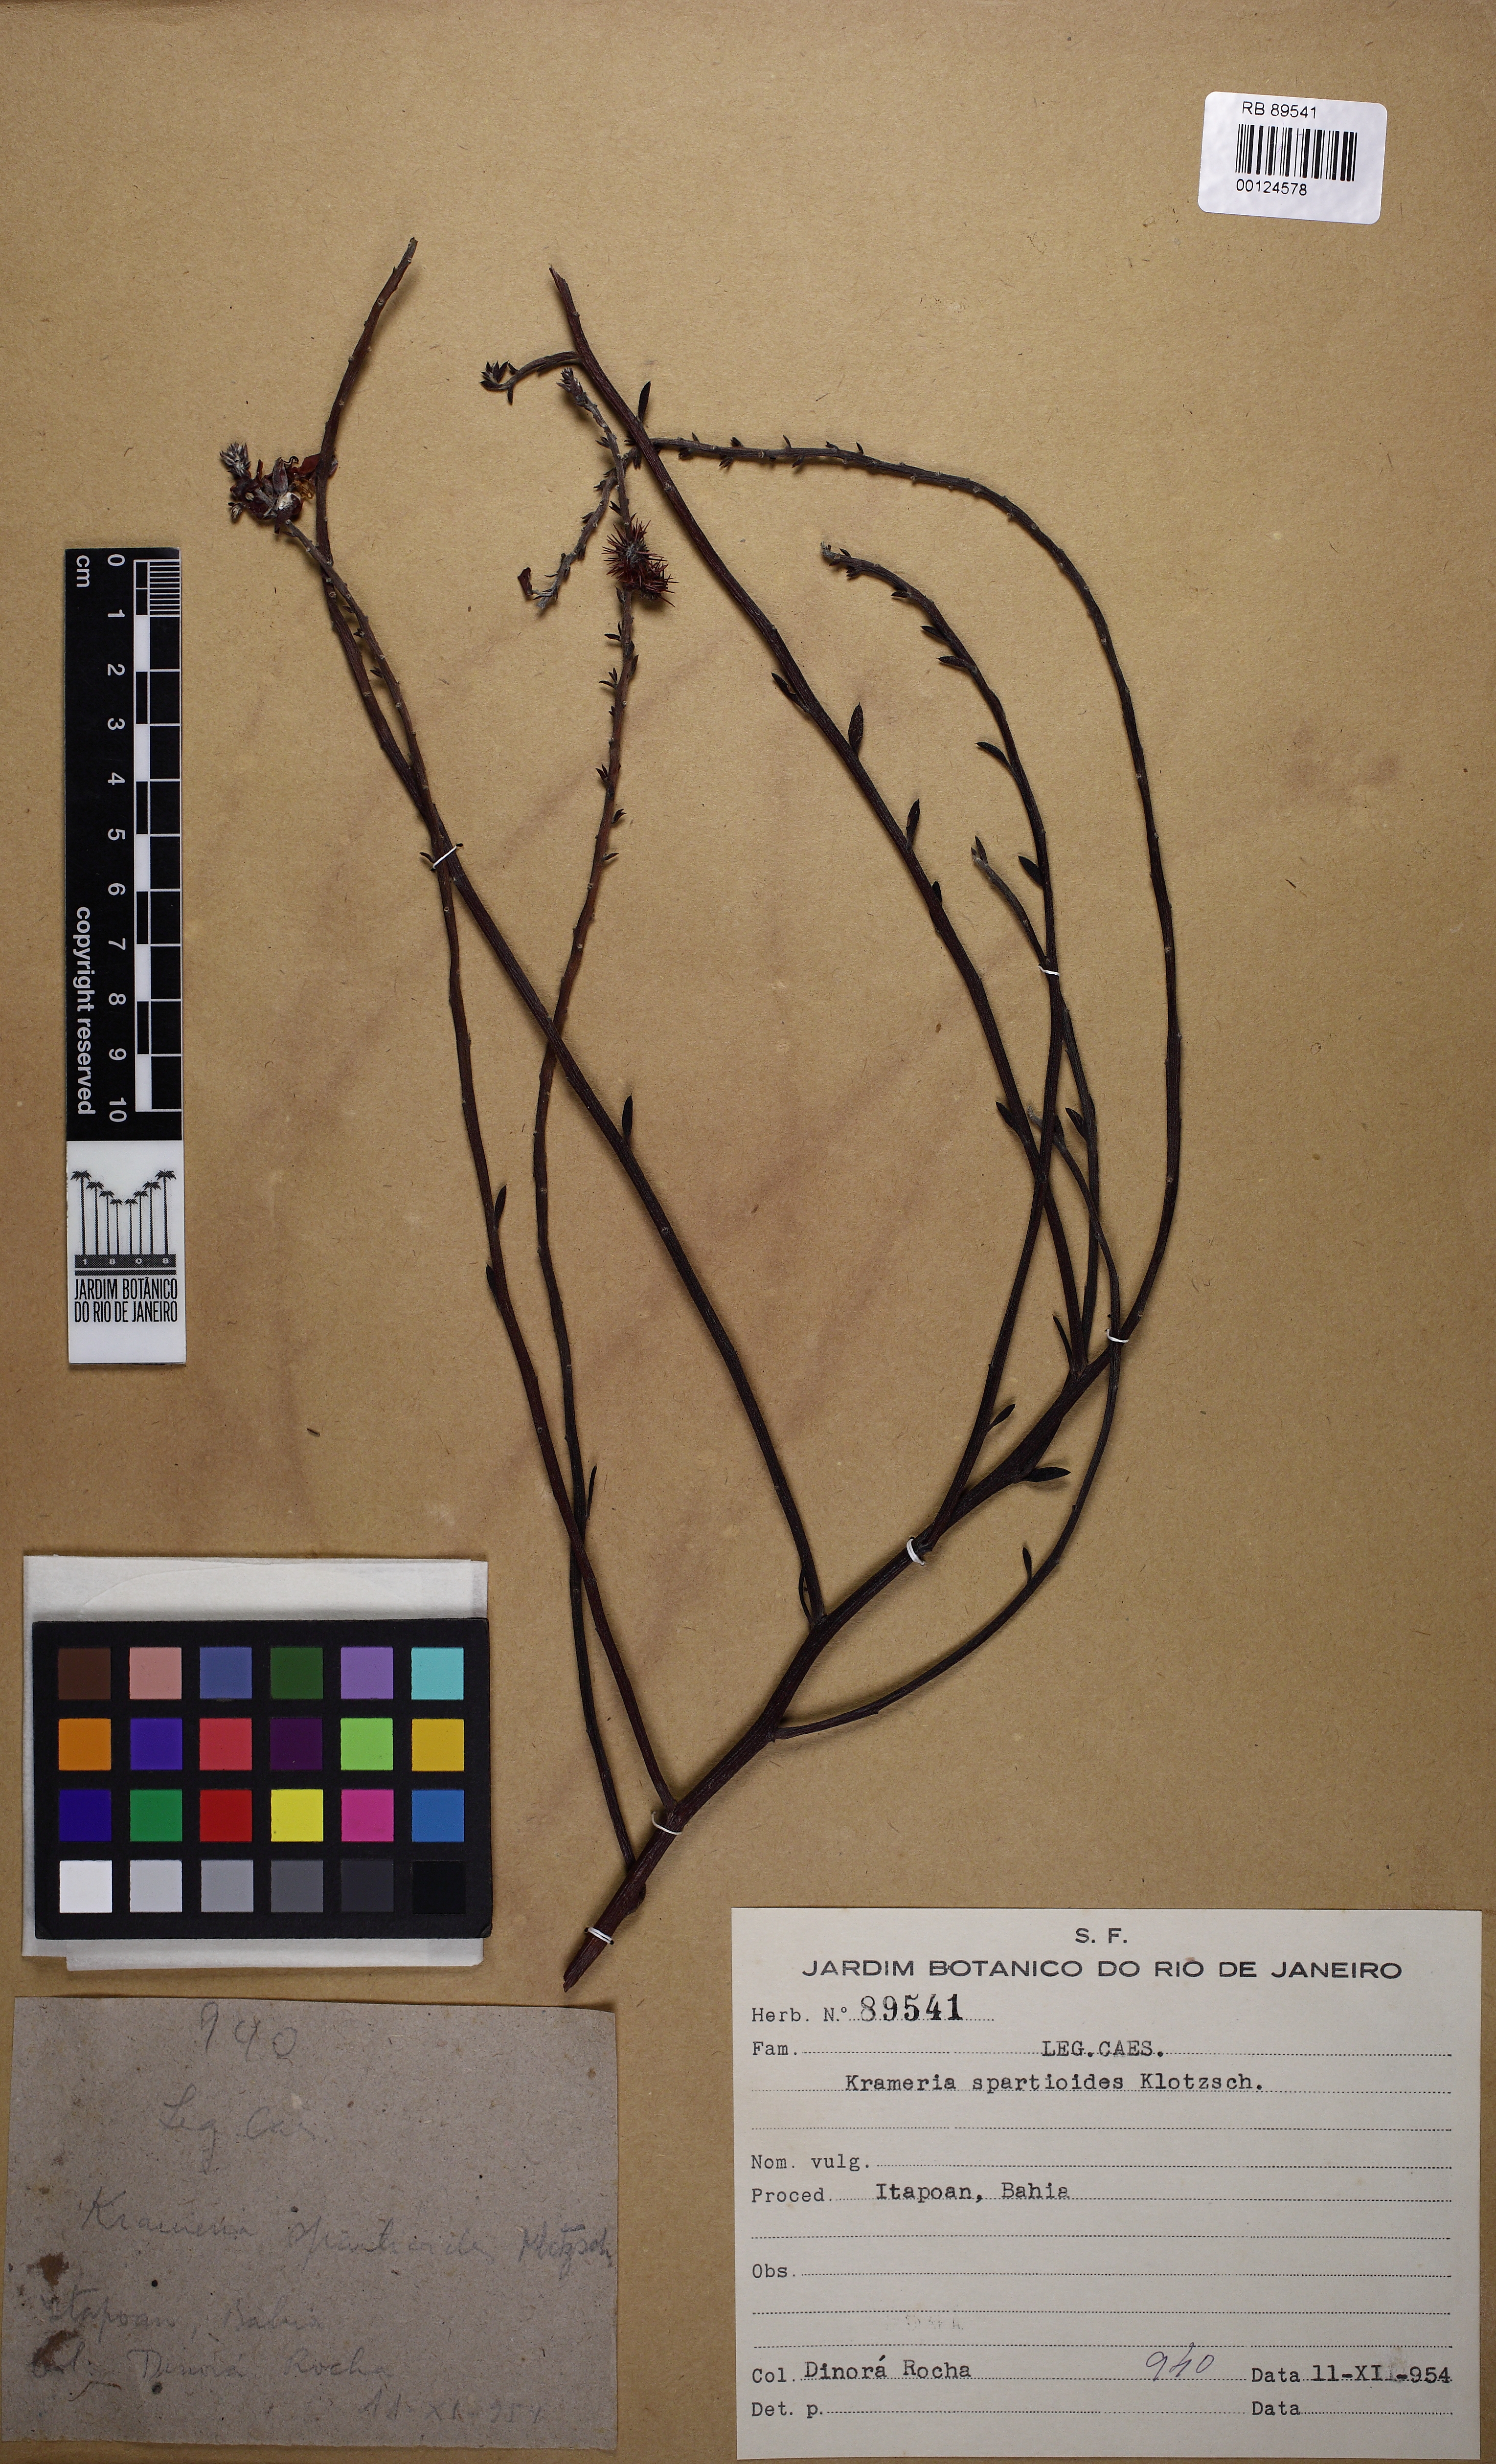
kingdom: Plantae
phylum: Tracheophyta
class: Magnoliopsida
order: Zygophyllales
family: Krameriaceae
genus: Krameria
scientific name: Krameria bahiana
